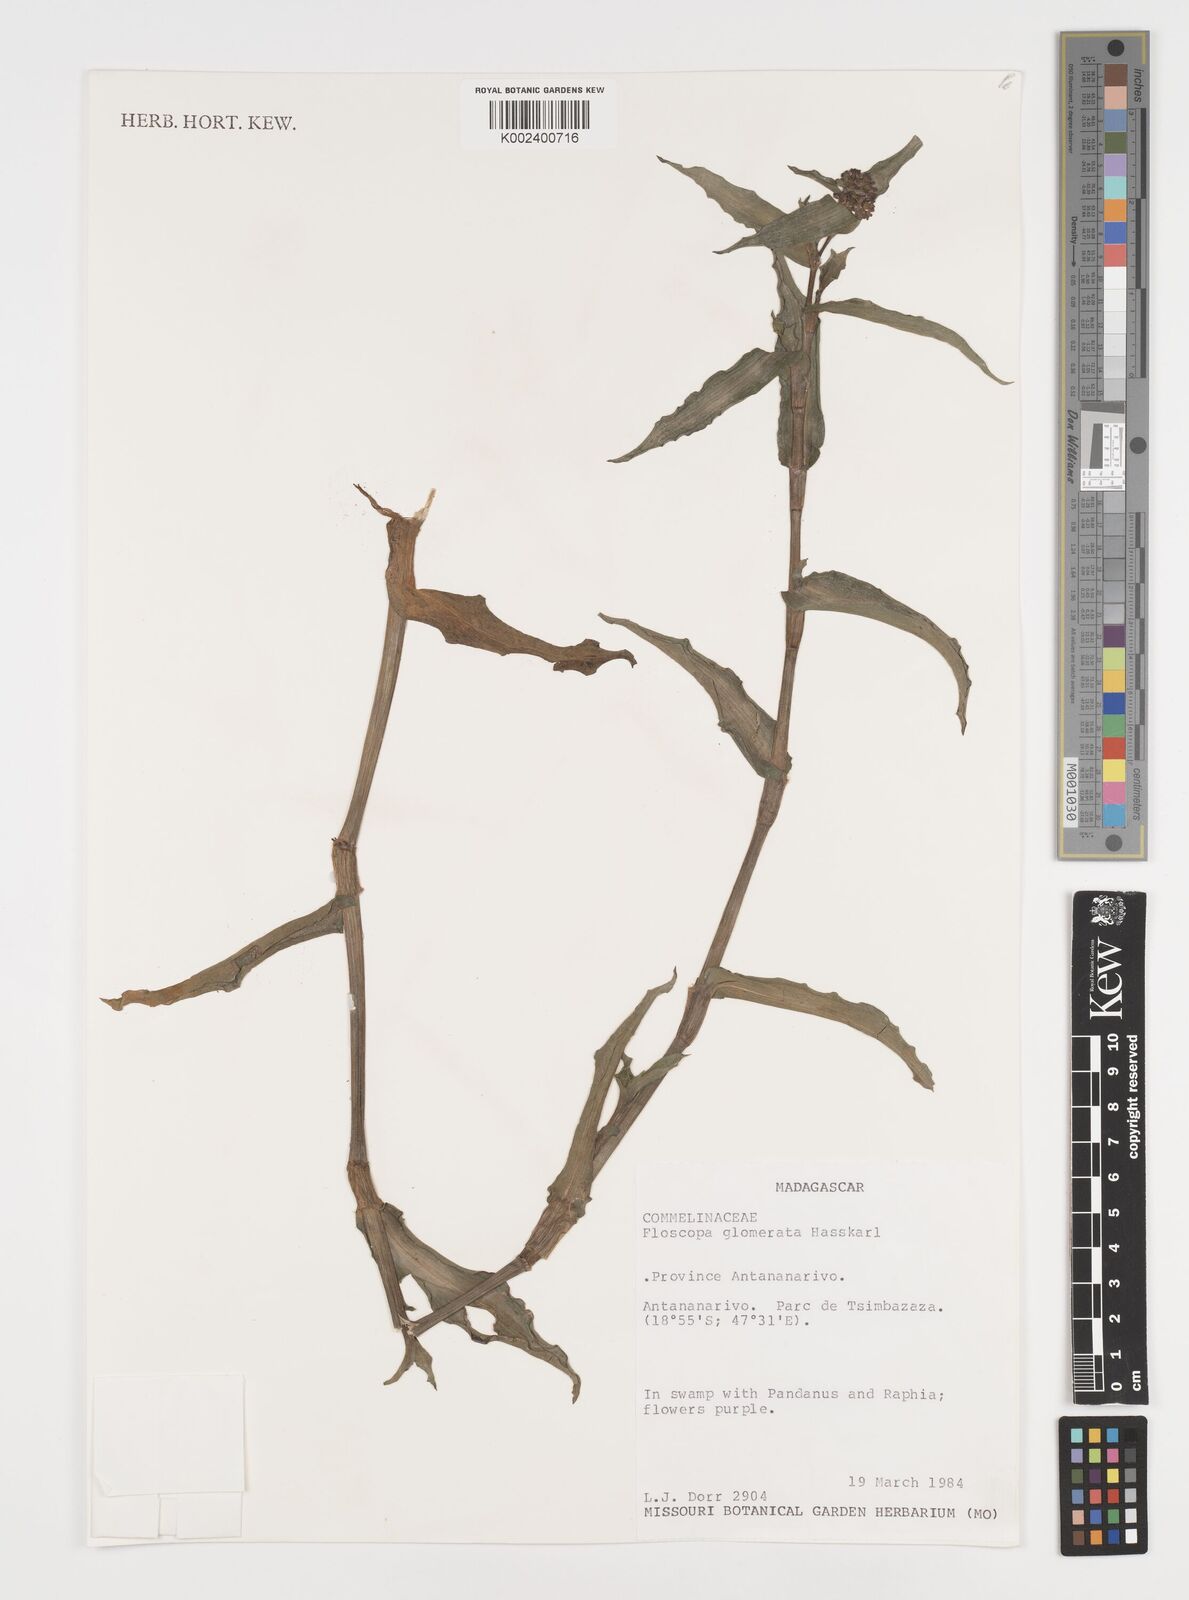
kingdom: Plantae
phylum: Tracheophyta
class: Liliopsida
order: Commelinales
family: Commelinaceae
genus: Floscopa
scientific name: Floscopa glomerata
